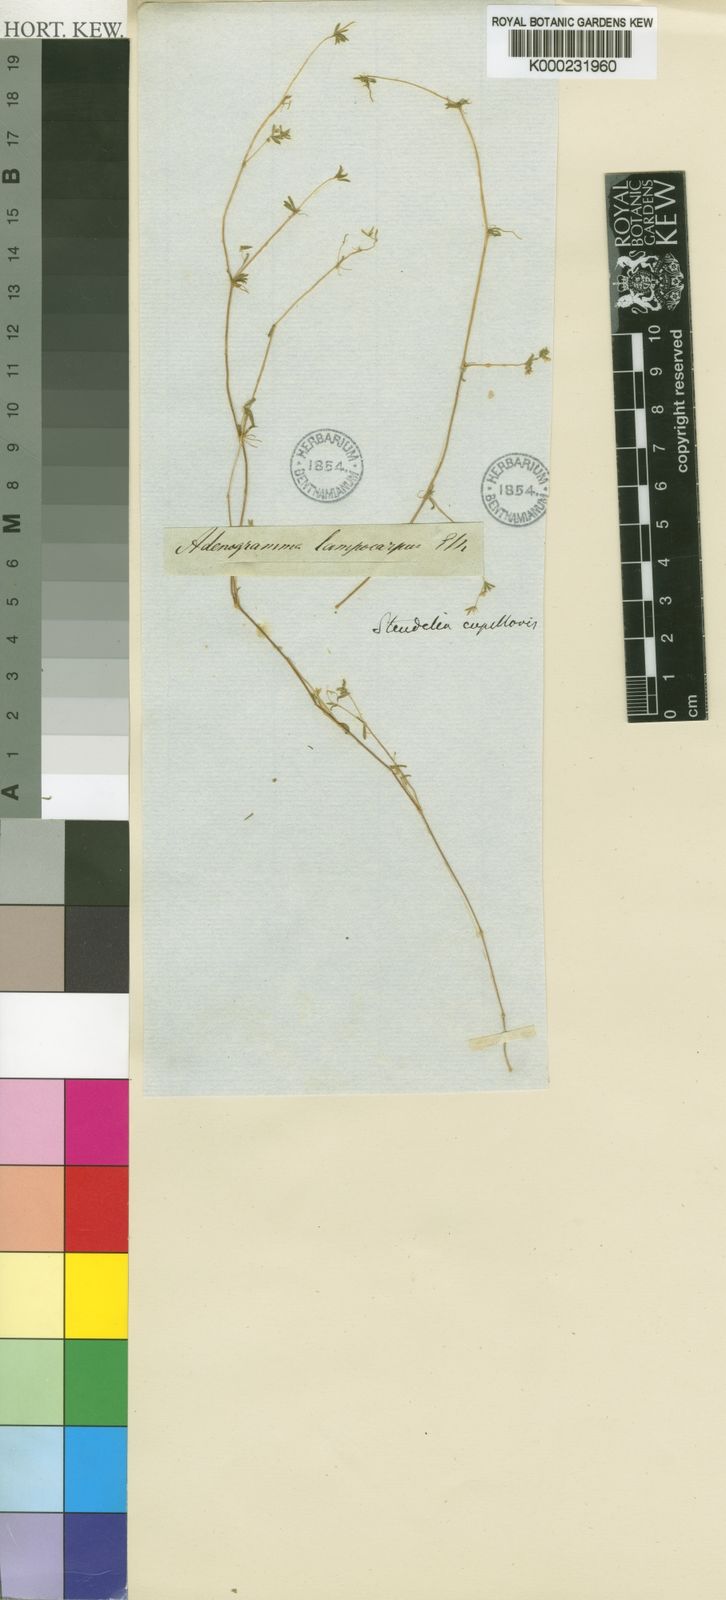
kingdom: Plantae
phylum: Tracheophyta
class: Magnoliopsida
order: Caryophyllales
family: Molluginaceae
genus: Adenogramma
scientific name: Adenogramma capillaris
